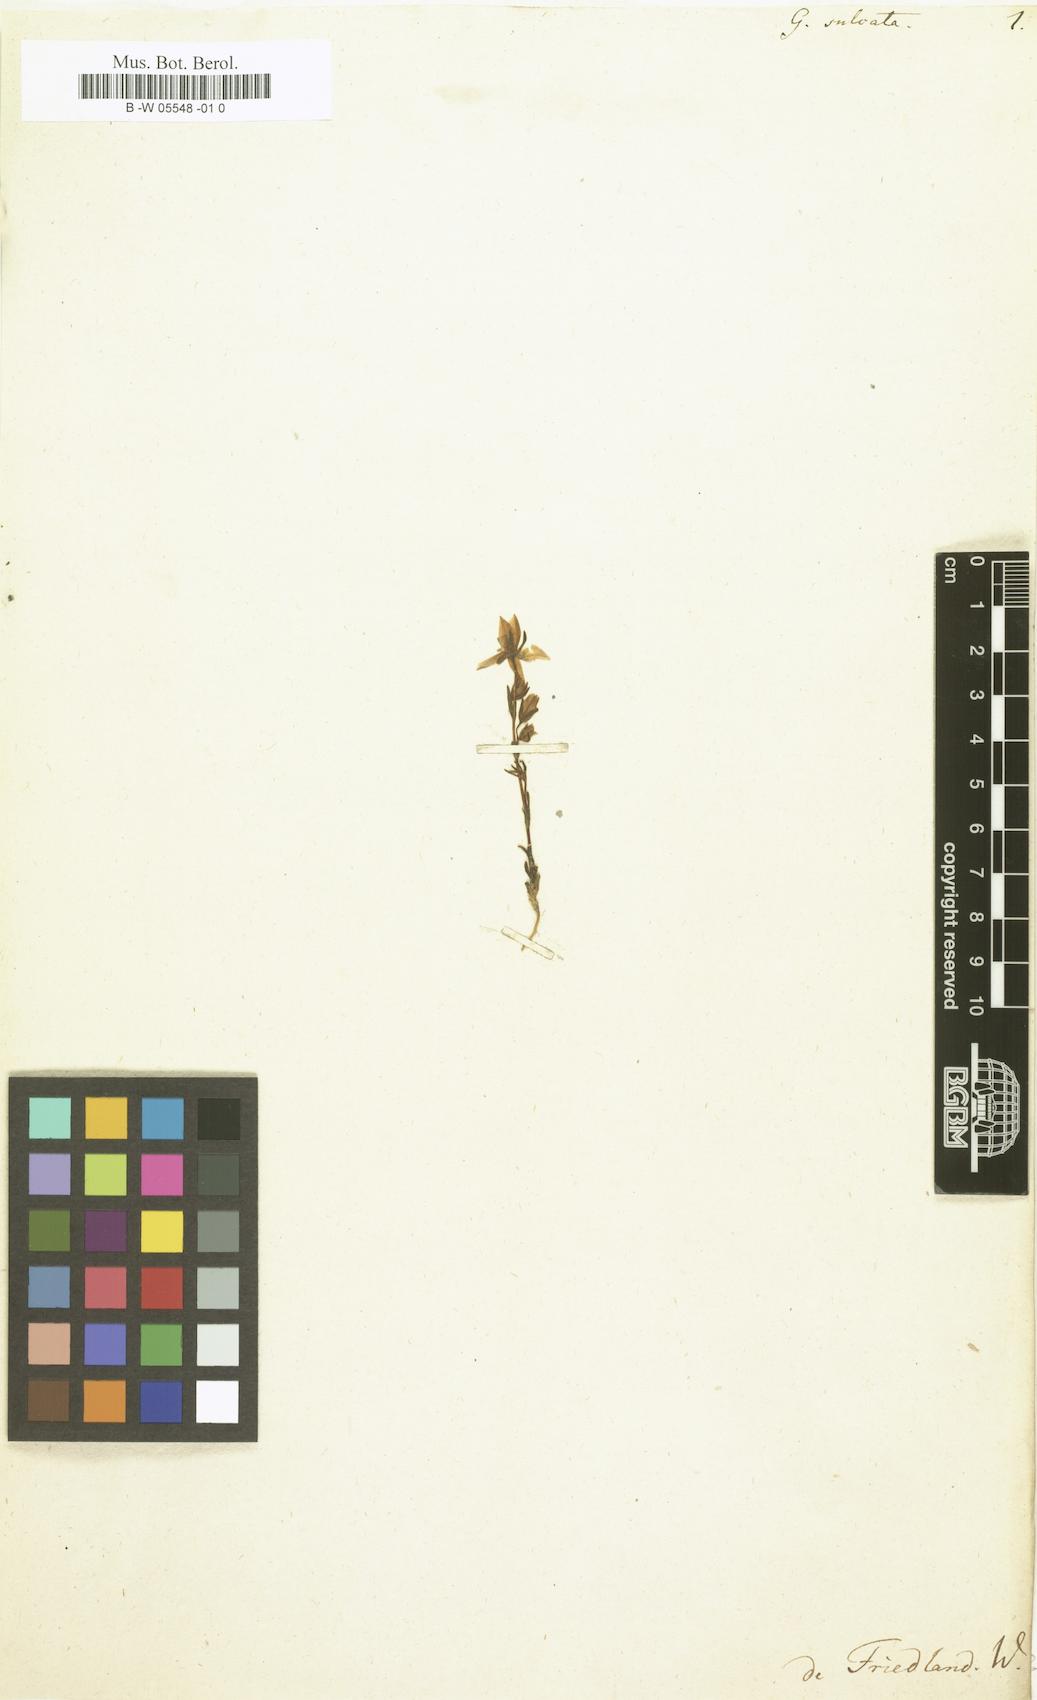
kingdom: Plantae
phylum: Tracheophyta
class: Magnoliopsida
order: Gentianales
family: Gentianaceae
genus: Lomatogonium
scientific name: Lomatogonium rotatum
